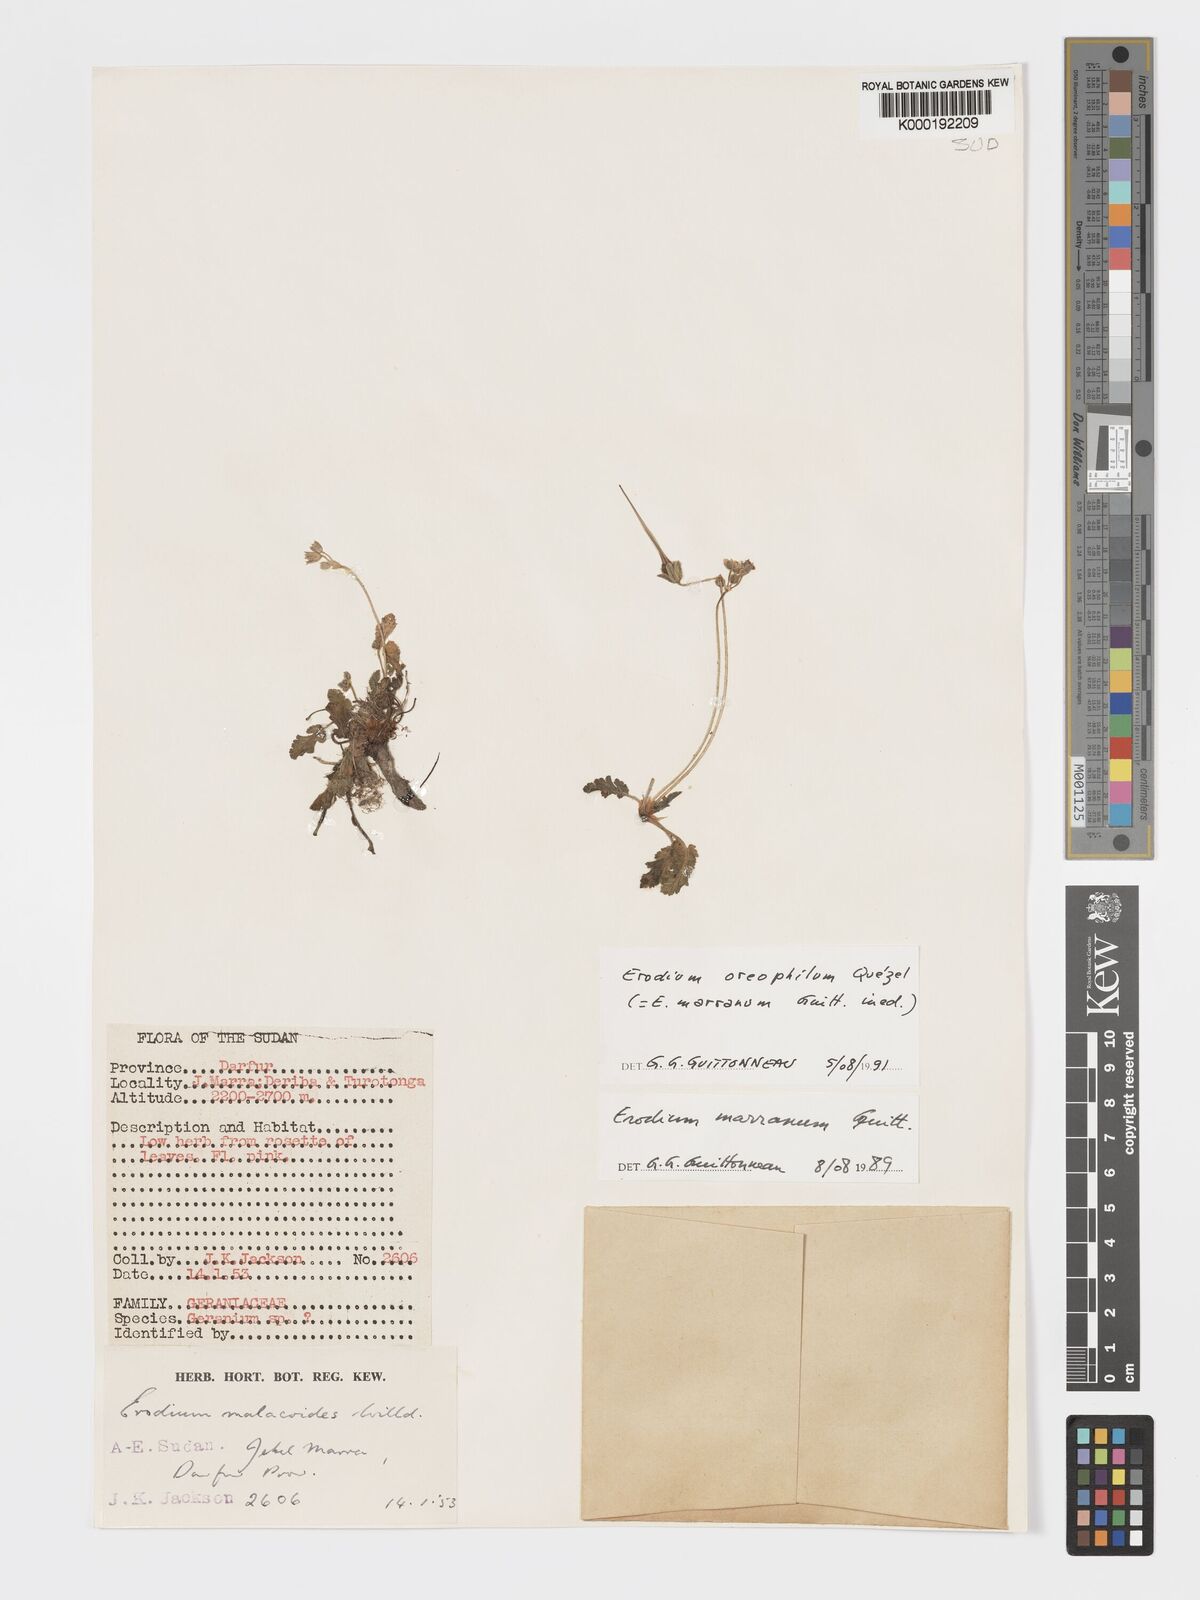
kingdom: Plantae
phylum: Tracheophyta
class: Magnoliopsida
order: Geraniales
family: Geraniaceae
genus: Erodium
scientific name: Erodium oreophilum
